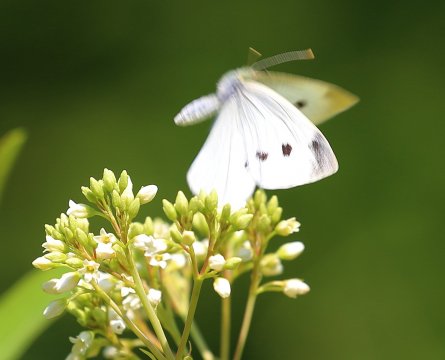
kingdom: Animalia
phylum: Arthropoda
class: Insecta
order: Lepidoptera
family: Pieridae
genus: Pieris
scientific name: Pieris rapae
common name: Cabbage White
